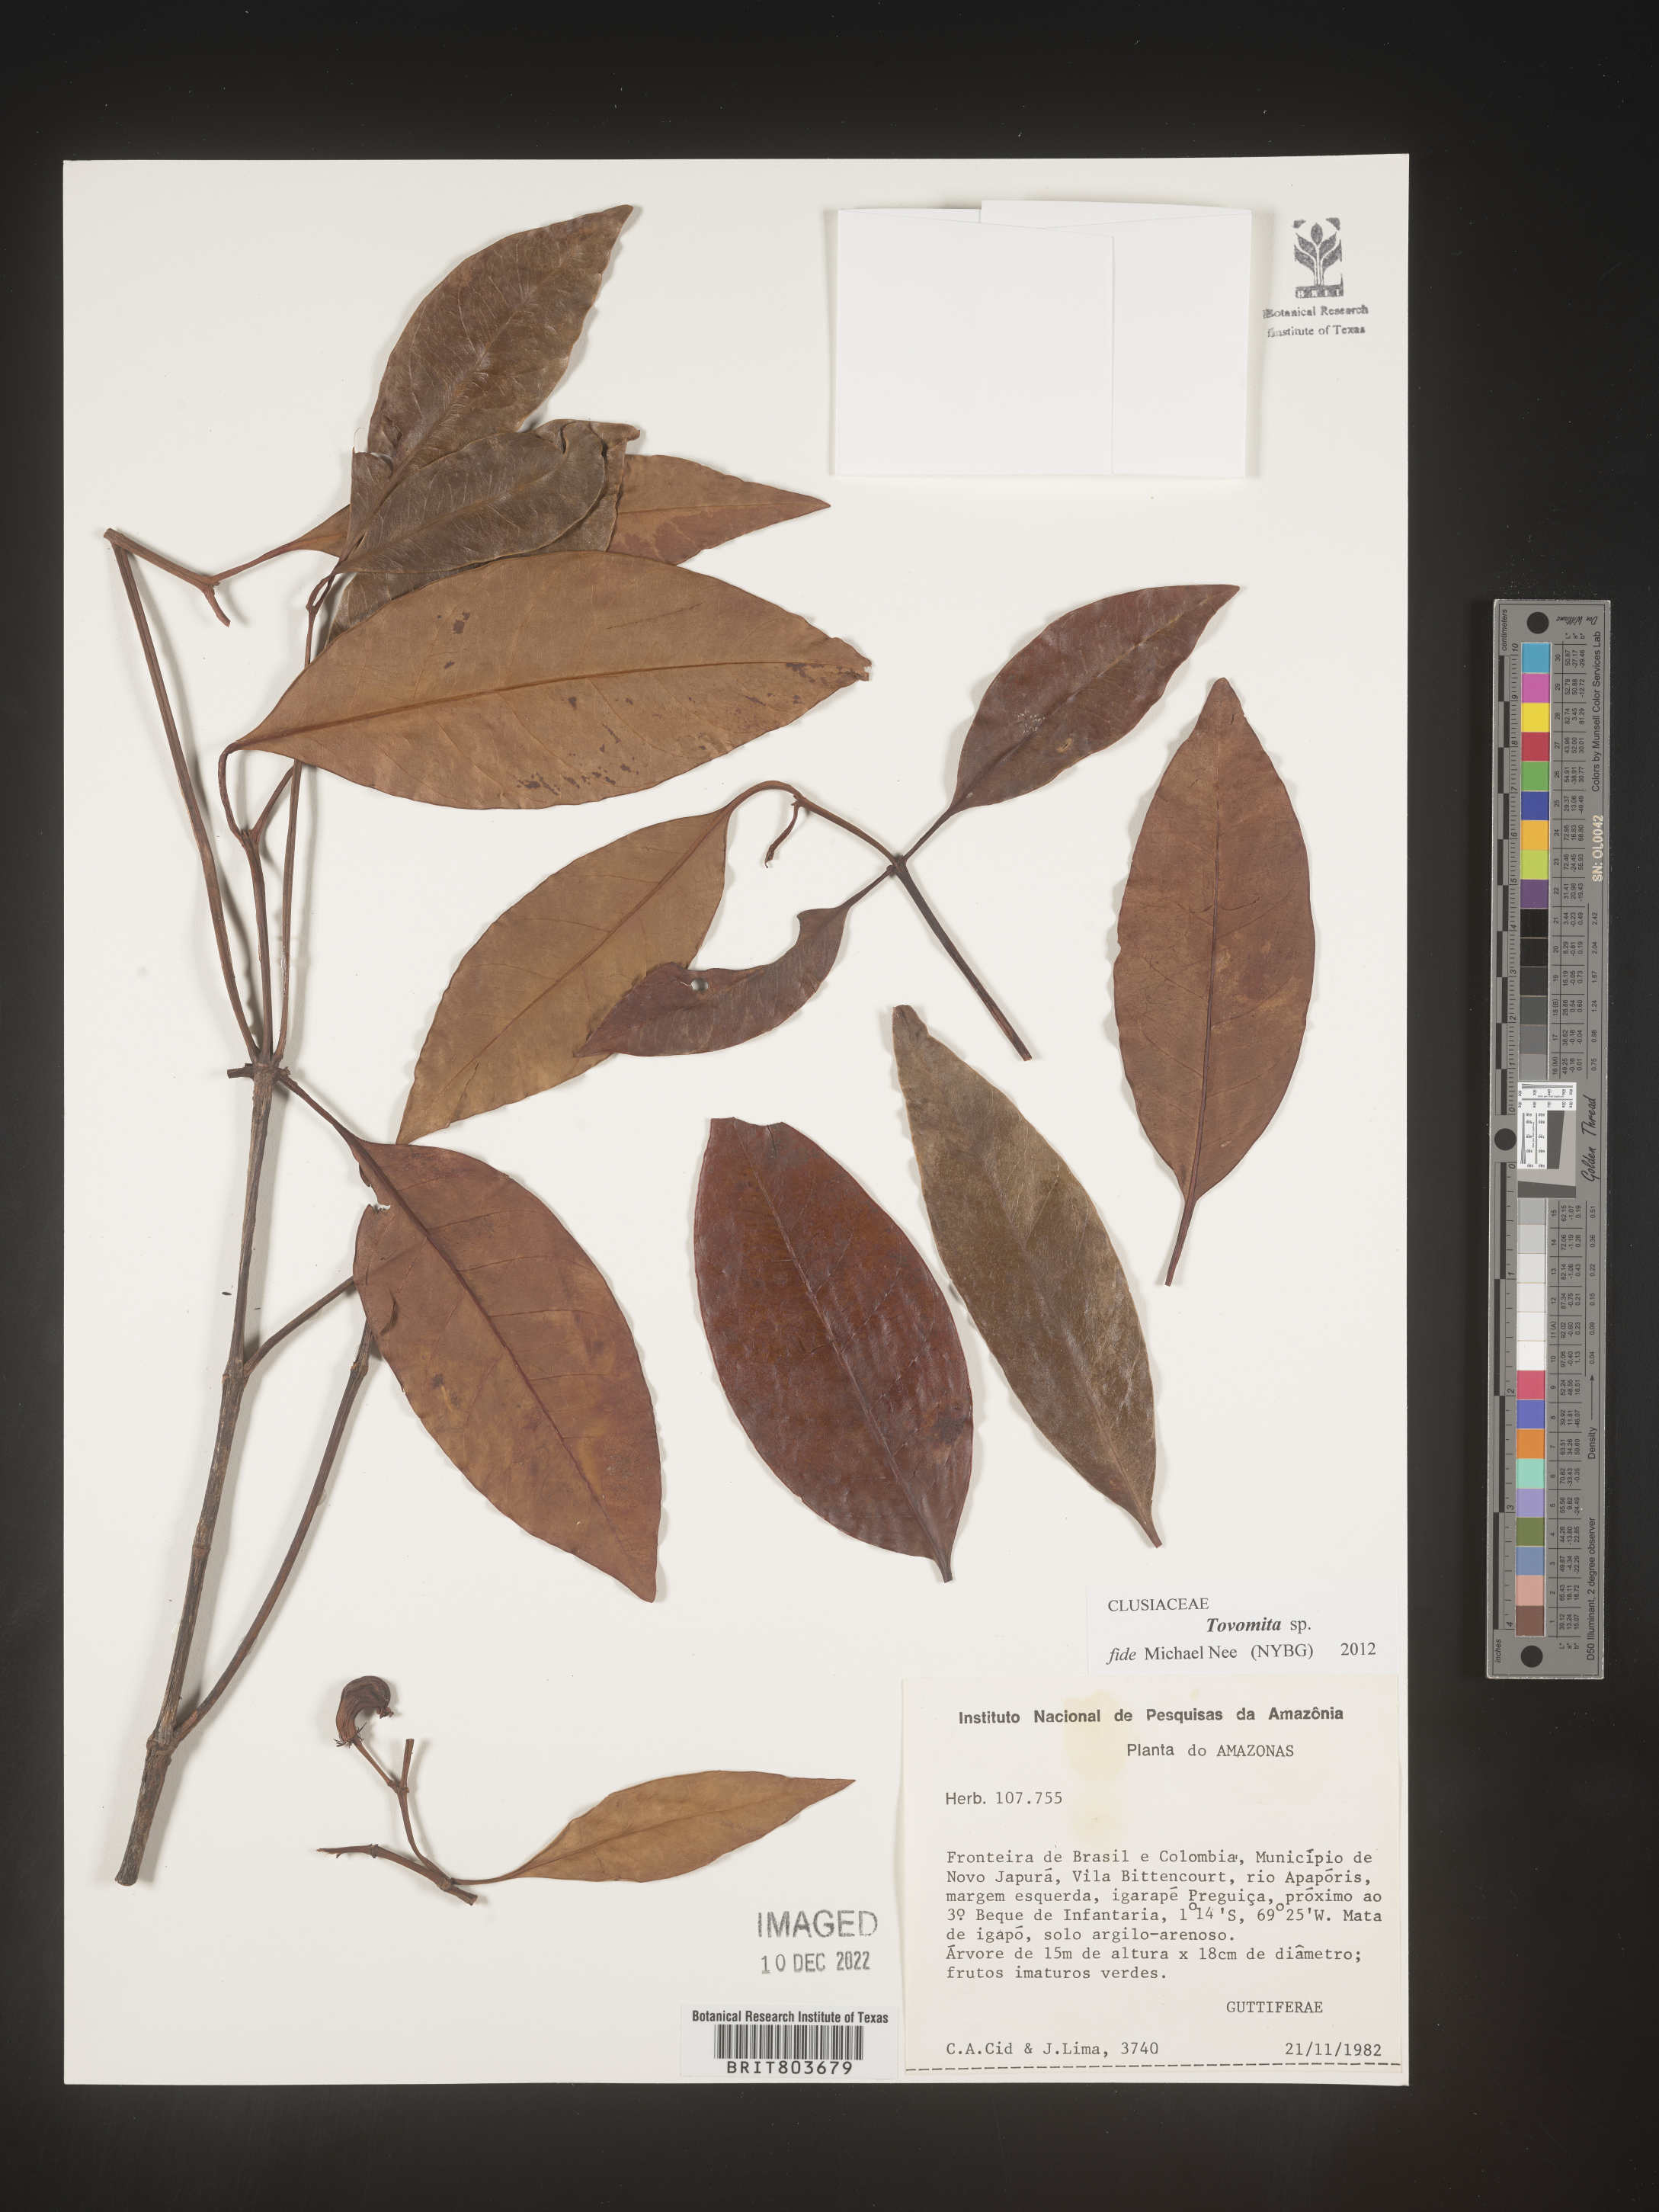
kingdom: Plantae
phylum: Tracheophyta
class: Magnoliopsida
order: Malpighiales
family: Clusiaceae
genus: Tovomita
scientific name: Tovomita
